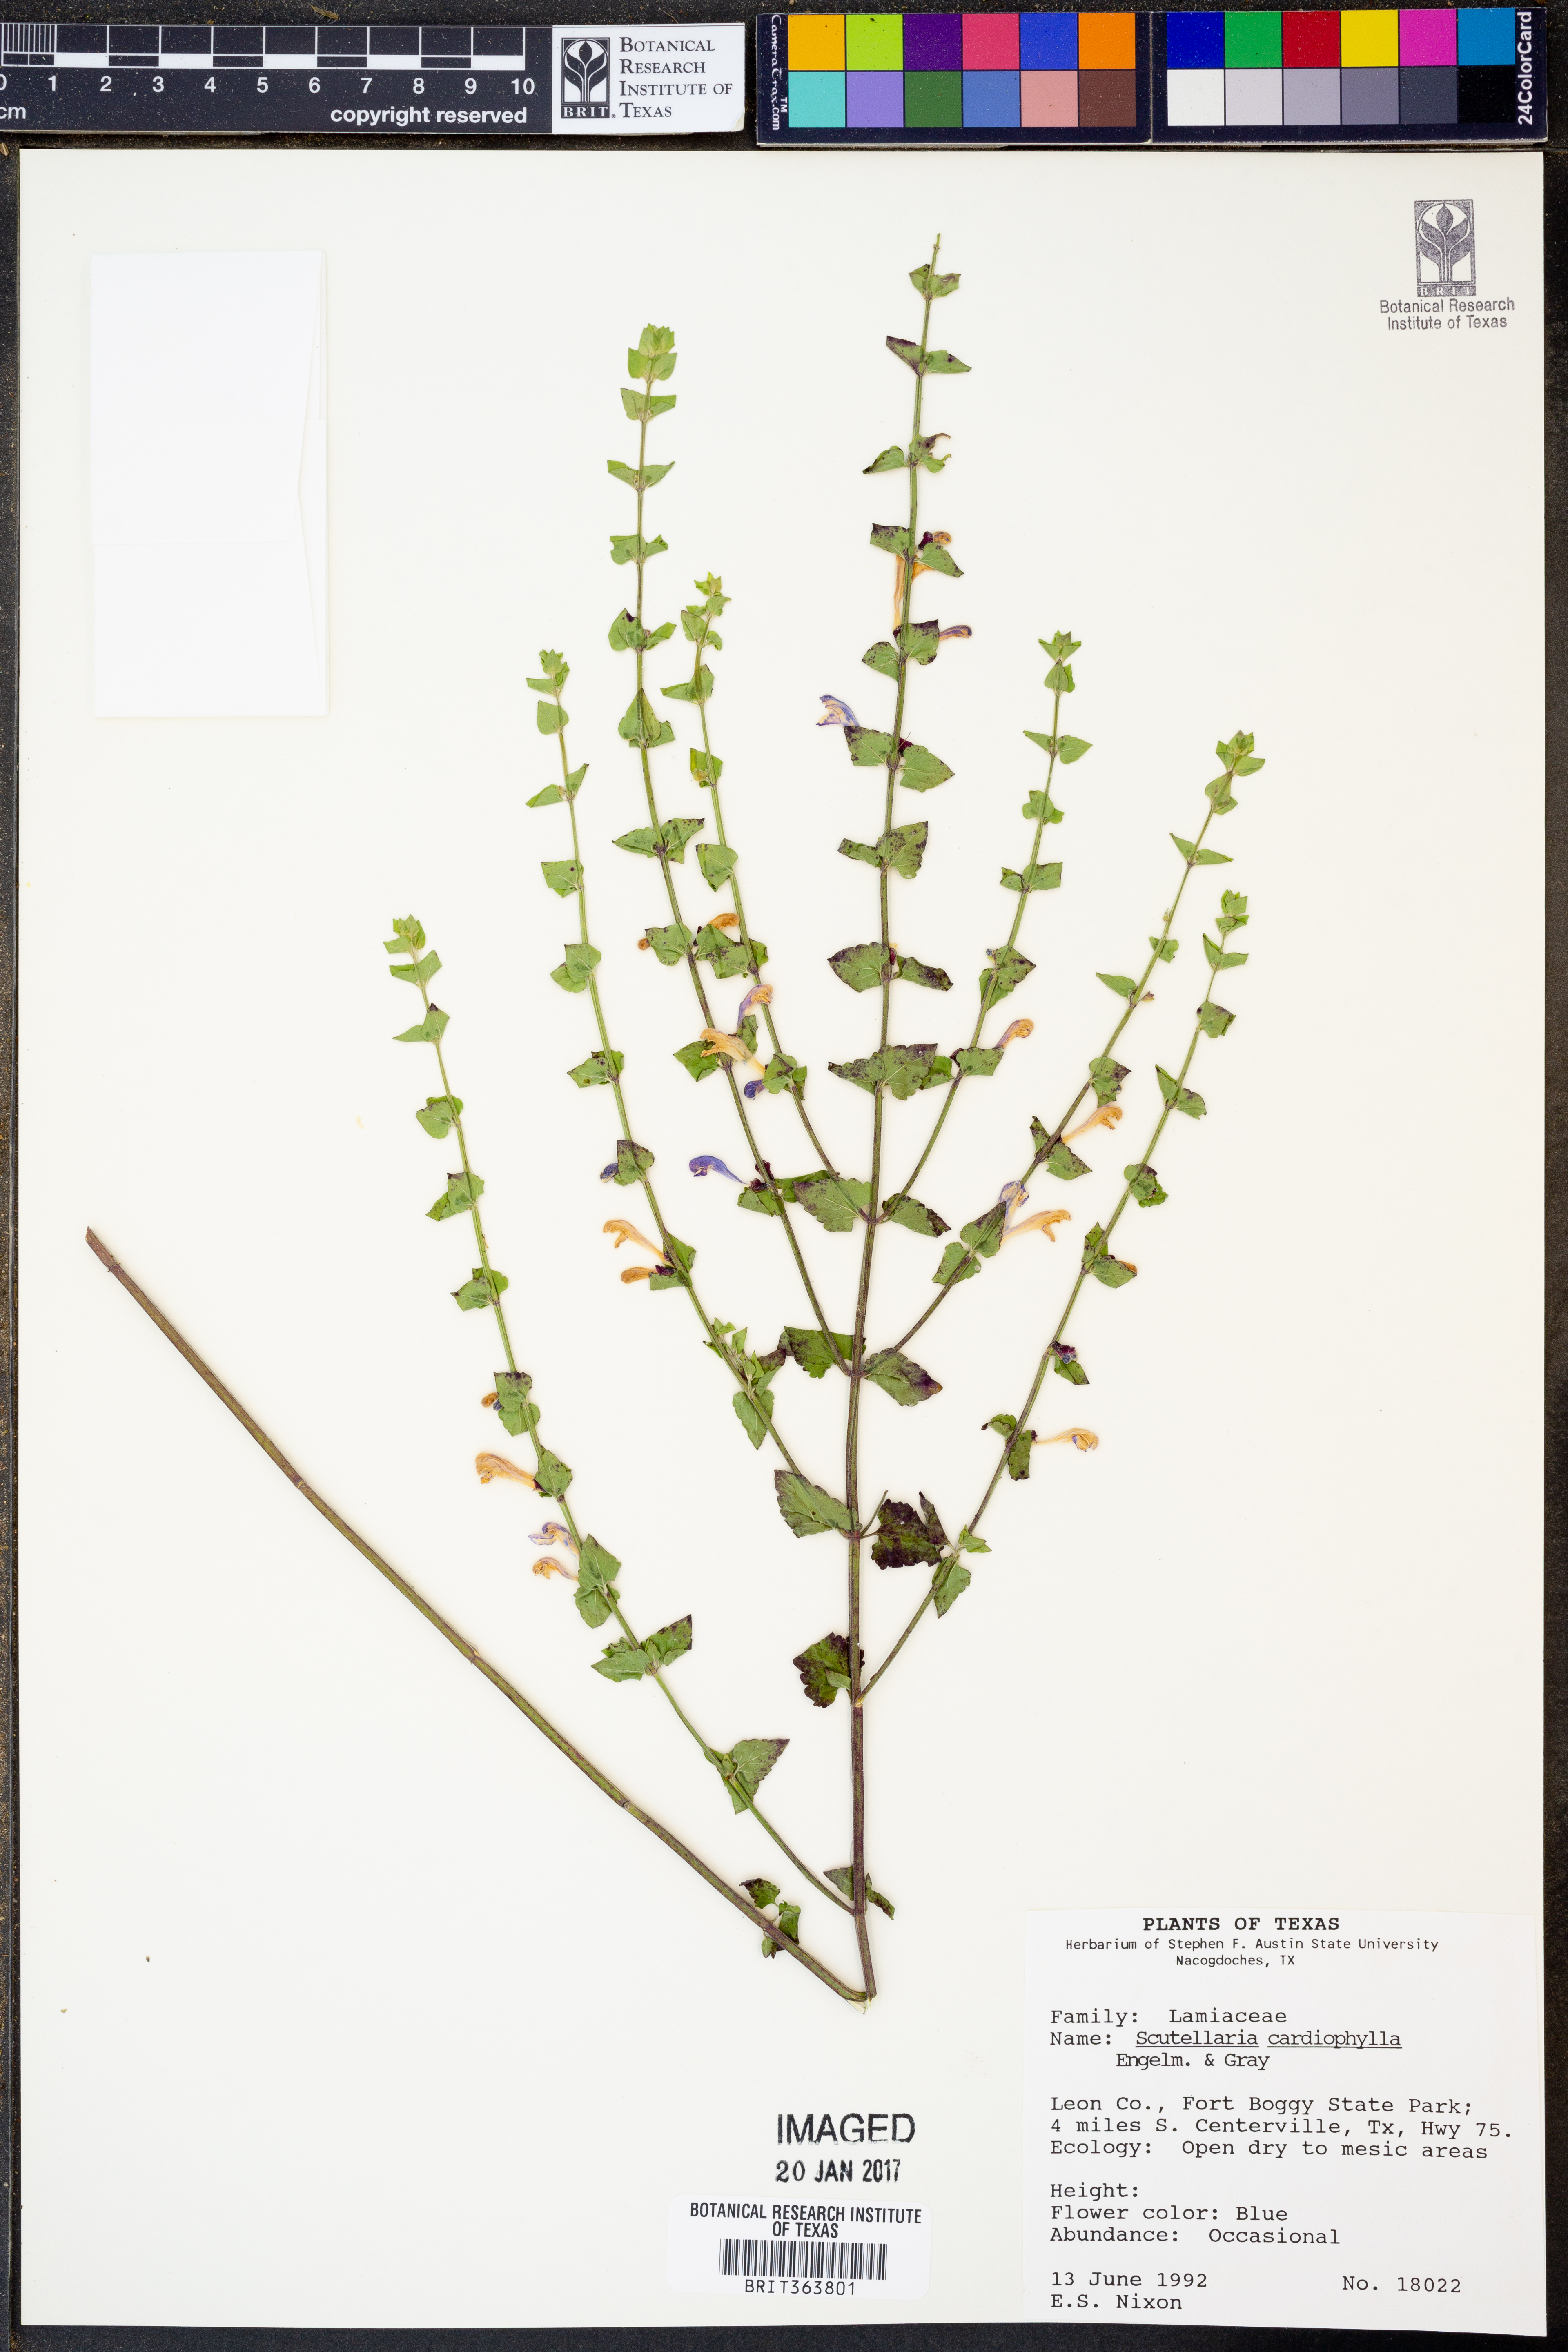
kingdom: Plantae
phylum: Tracheophyta
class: Magnoliopsida
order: Lamiales
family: Lamiaceae
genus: Scutellaria
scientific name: Scutellaria cardiophylla
